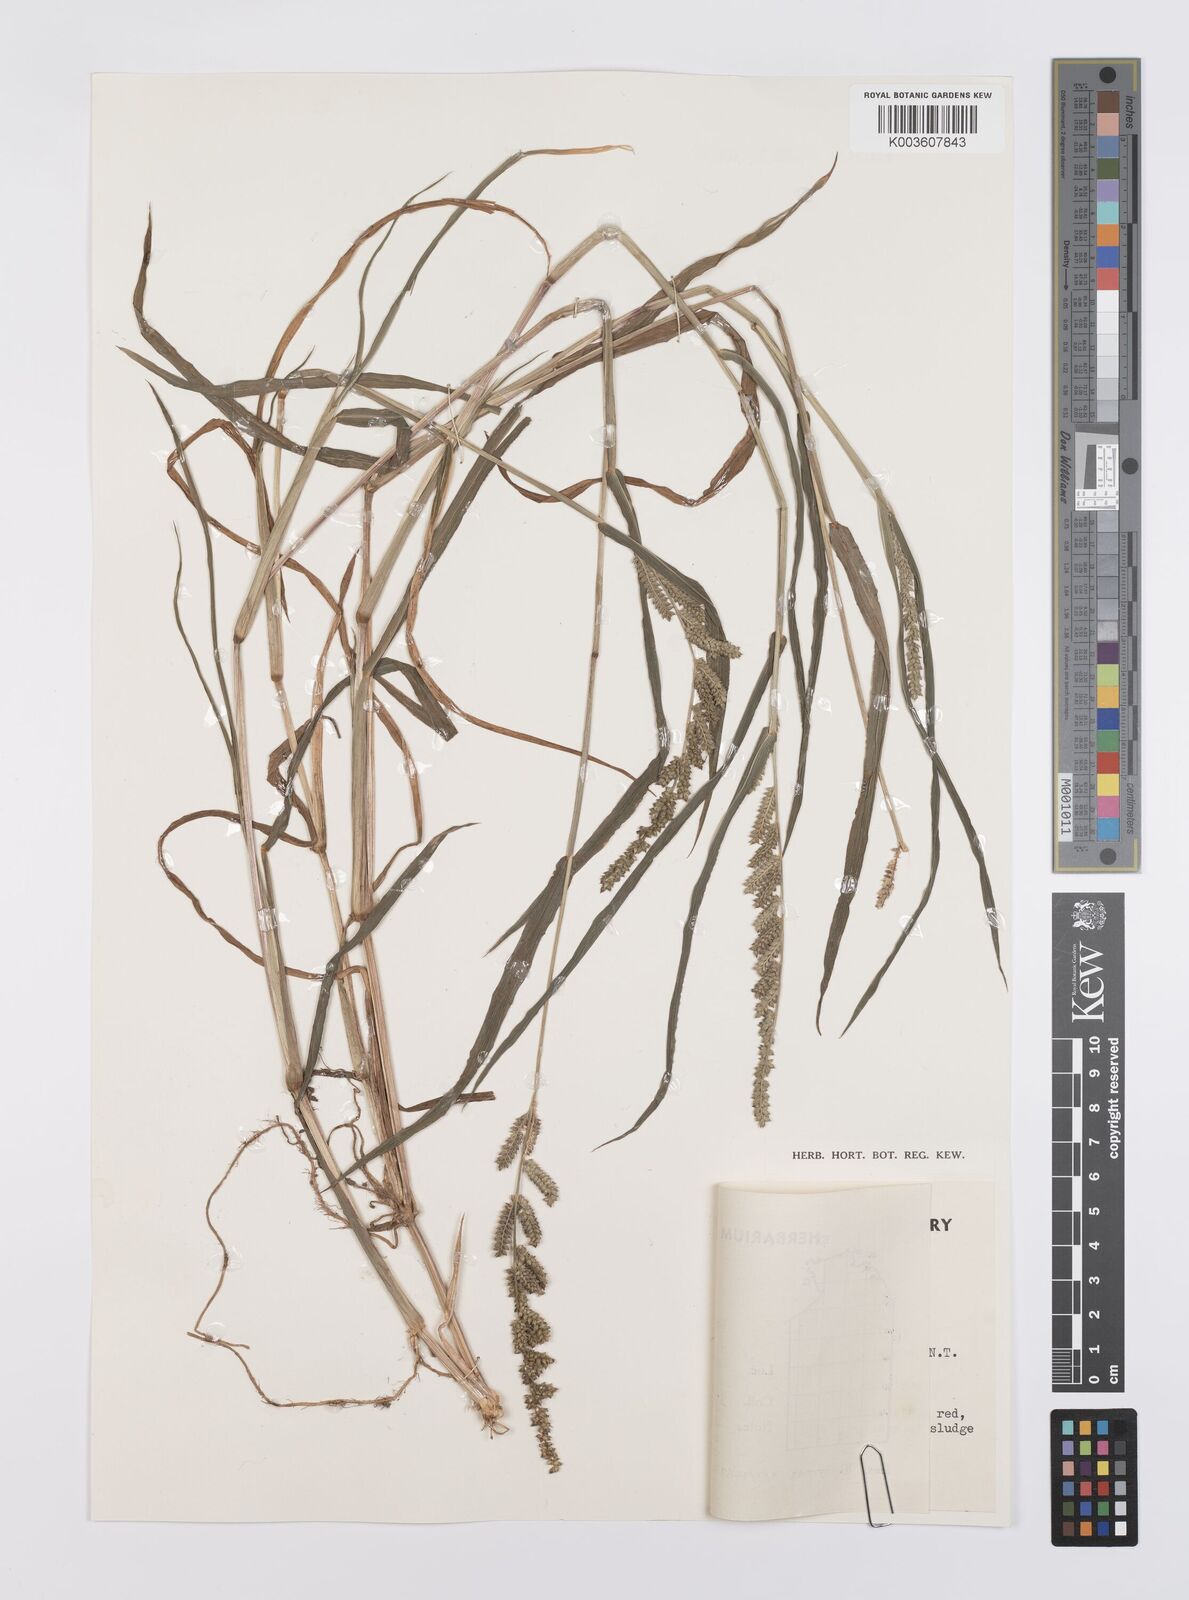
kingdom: Plantae
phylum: Tracheophyta
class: Liliopsida
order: Poales
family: Poaceae
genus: Echinochloa
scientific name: Echinochloa colonum
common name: Jungle rice
